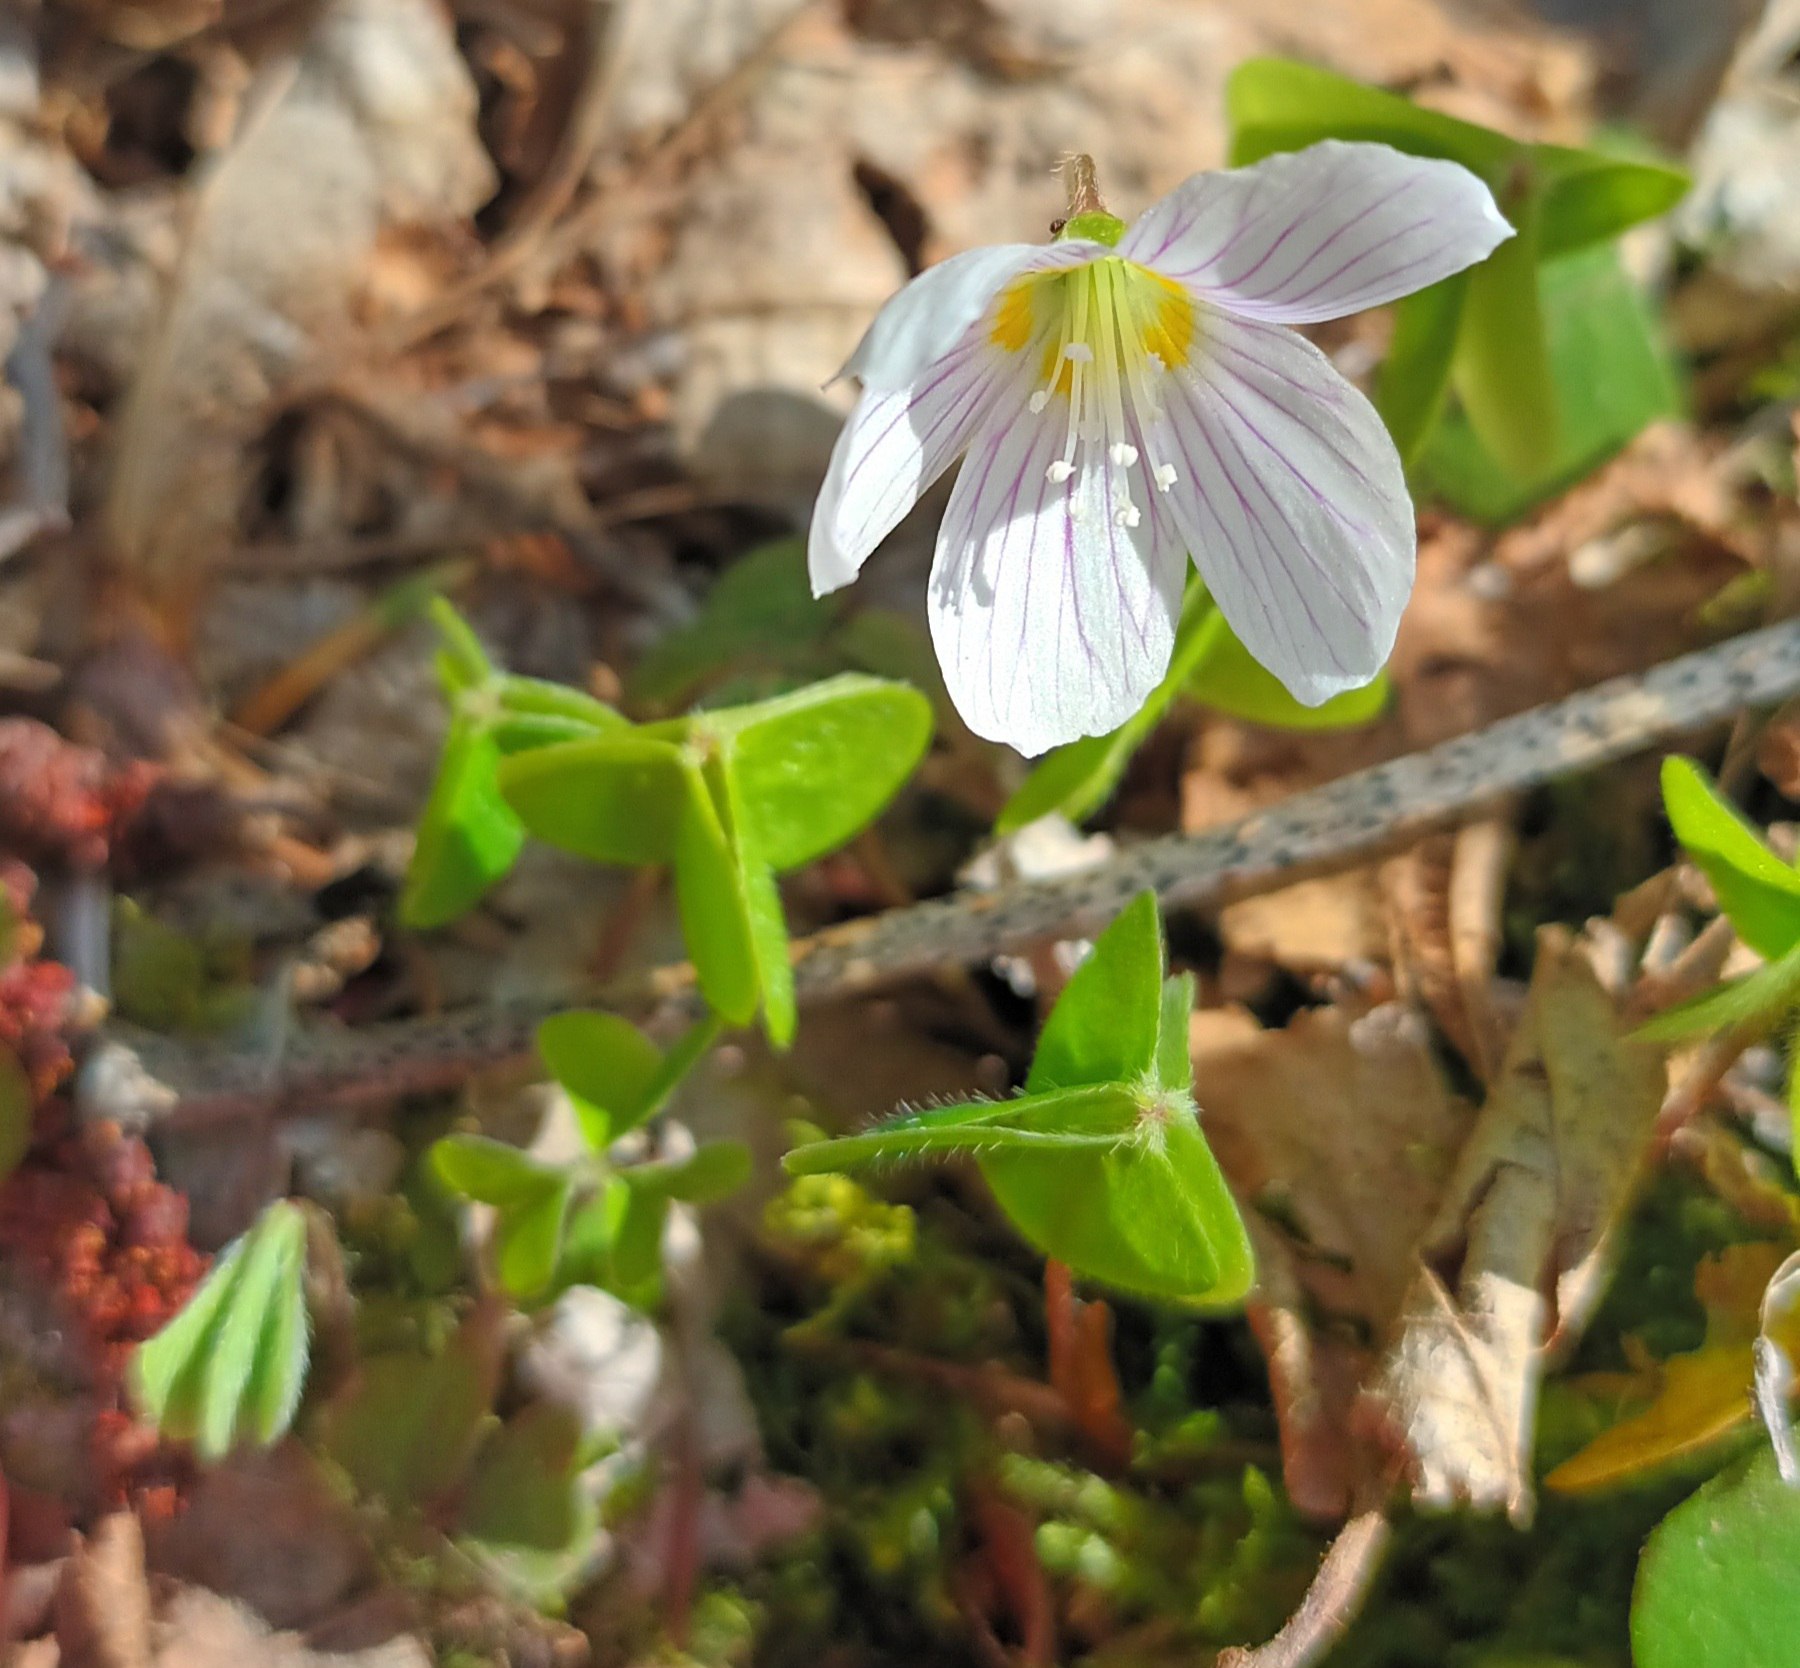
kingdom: Plantae
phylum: Tracheophyta
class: Magnoliopsida
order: Oxalidales
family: Oxalidaceae
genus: Oxalis
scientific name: Oxalis acetosella
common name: Skovsyre
